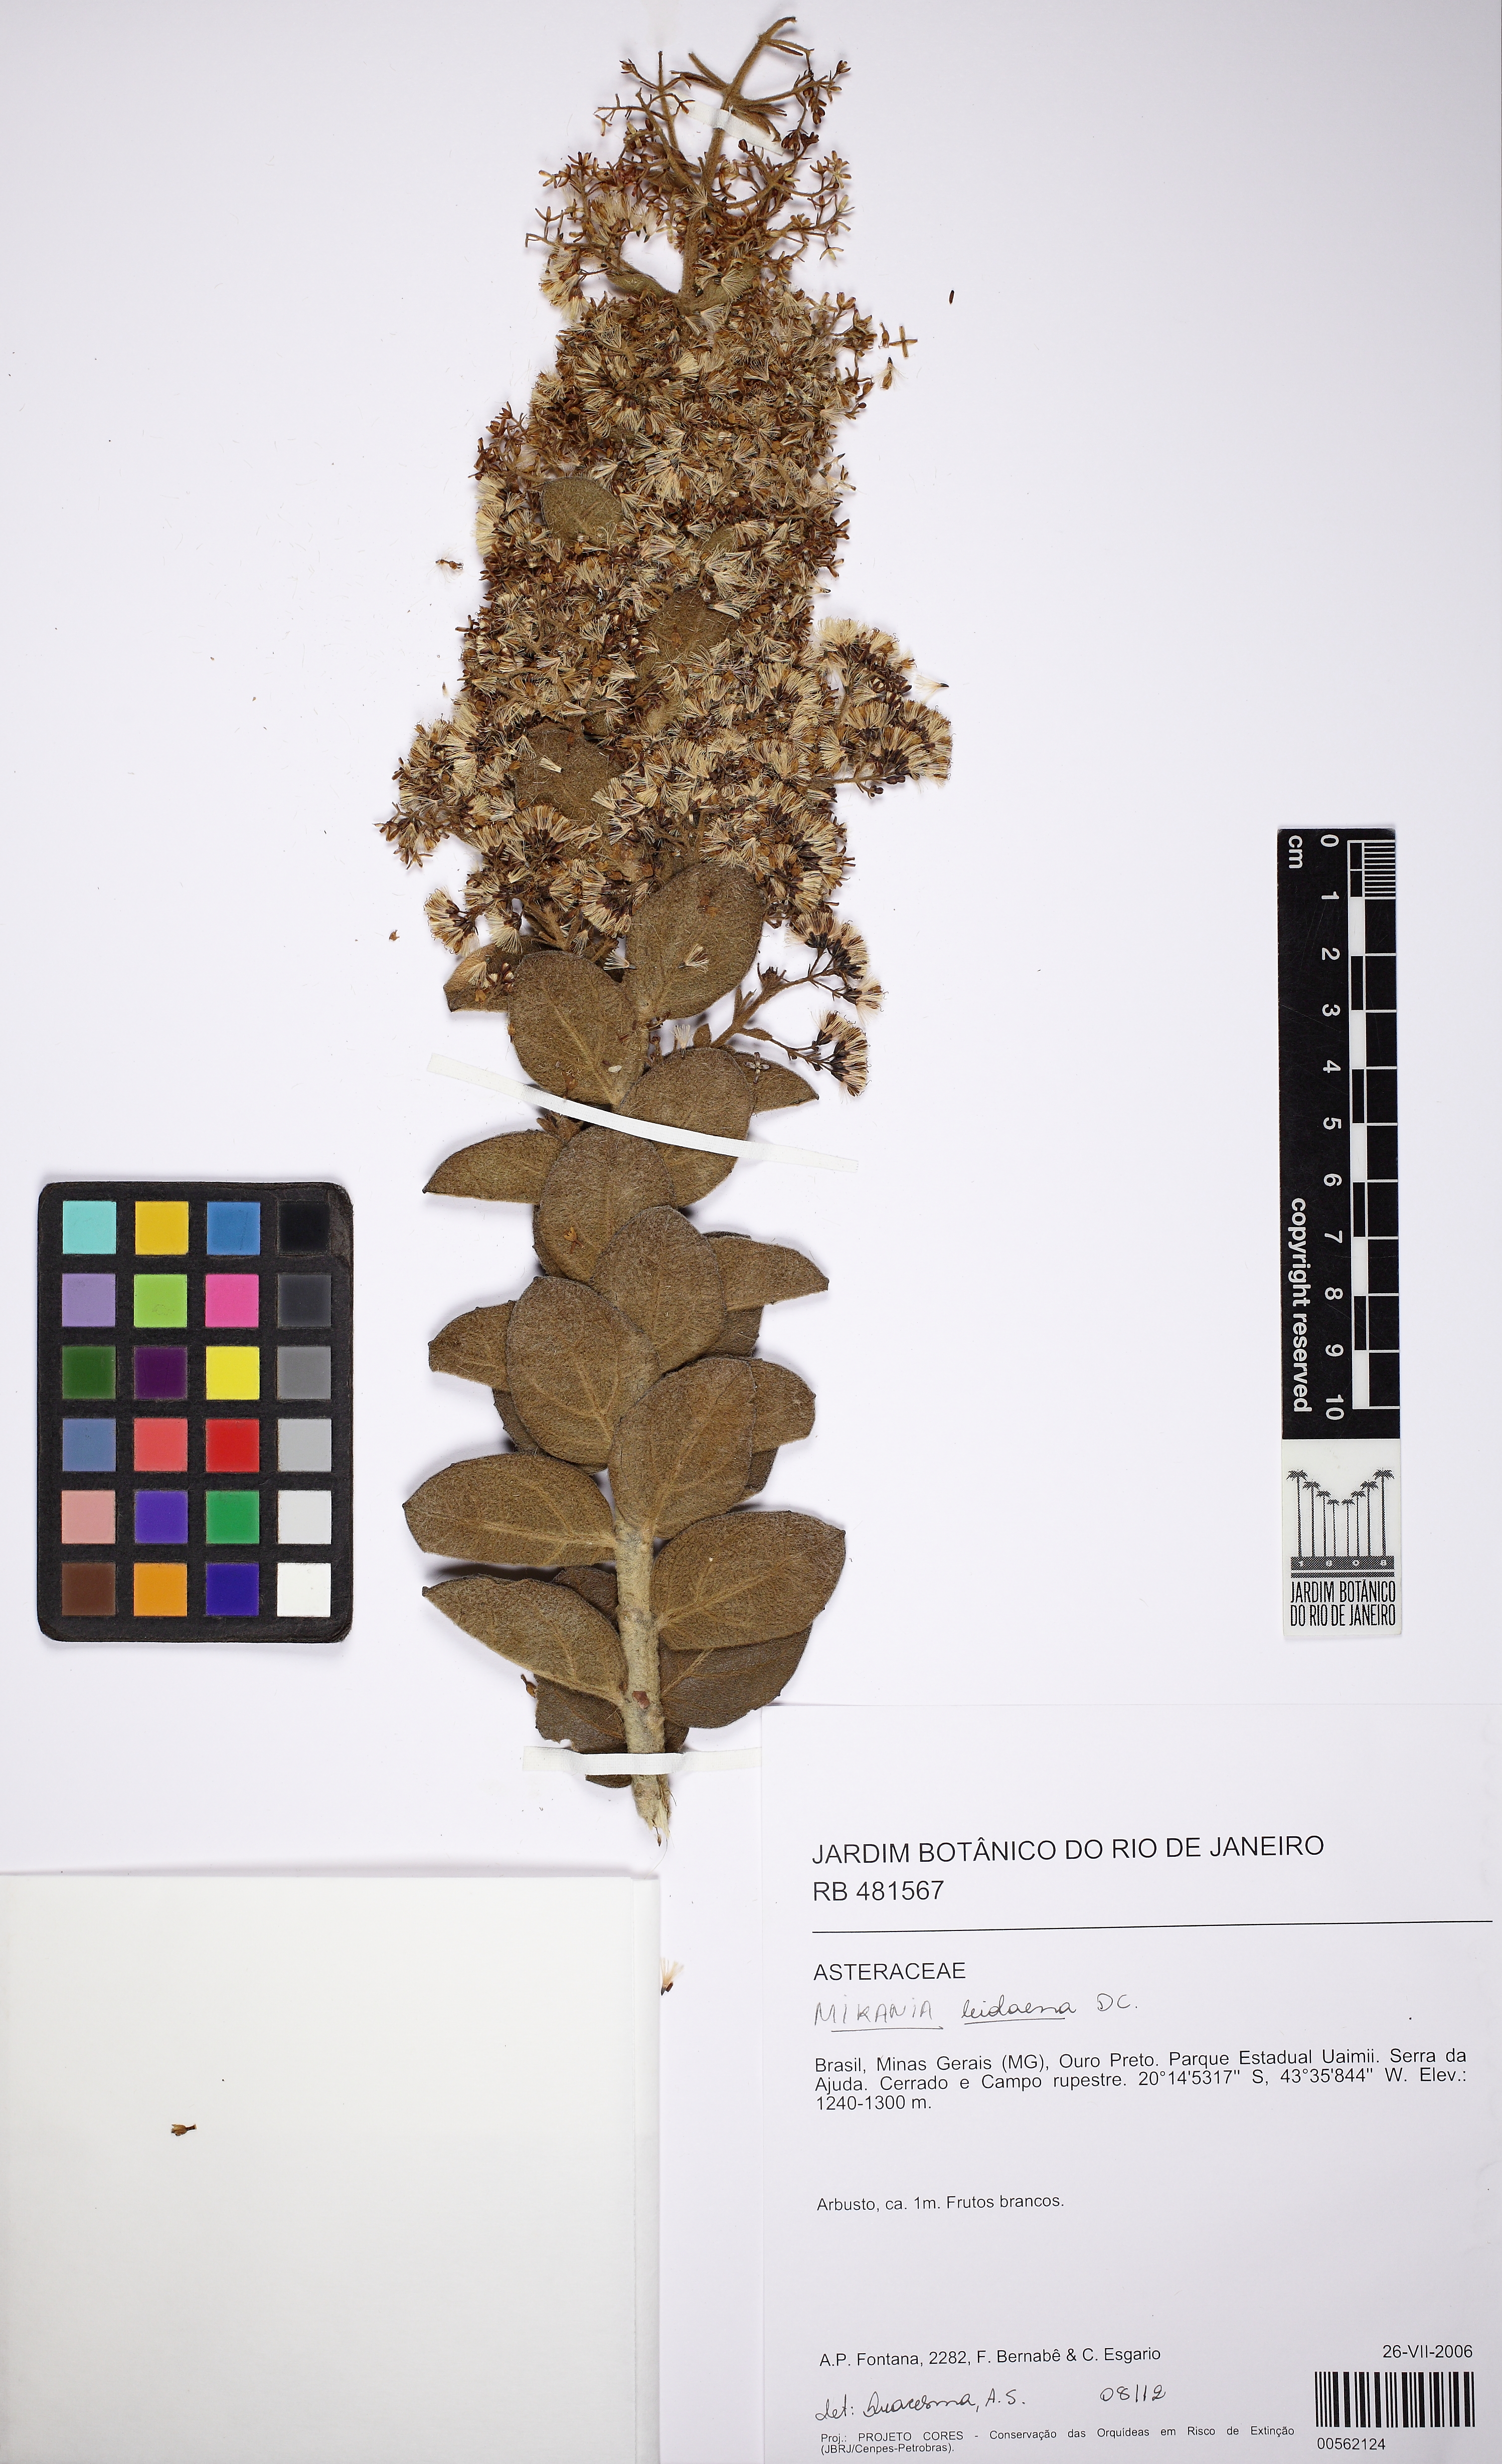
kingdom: Plantae
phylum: Tracheophyta
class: Magnoliopsida
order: Asterales
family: Asteraceae
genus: Mikania
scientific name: Mikania leiolaena
